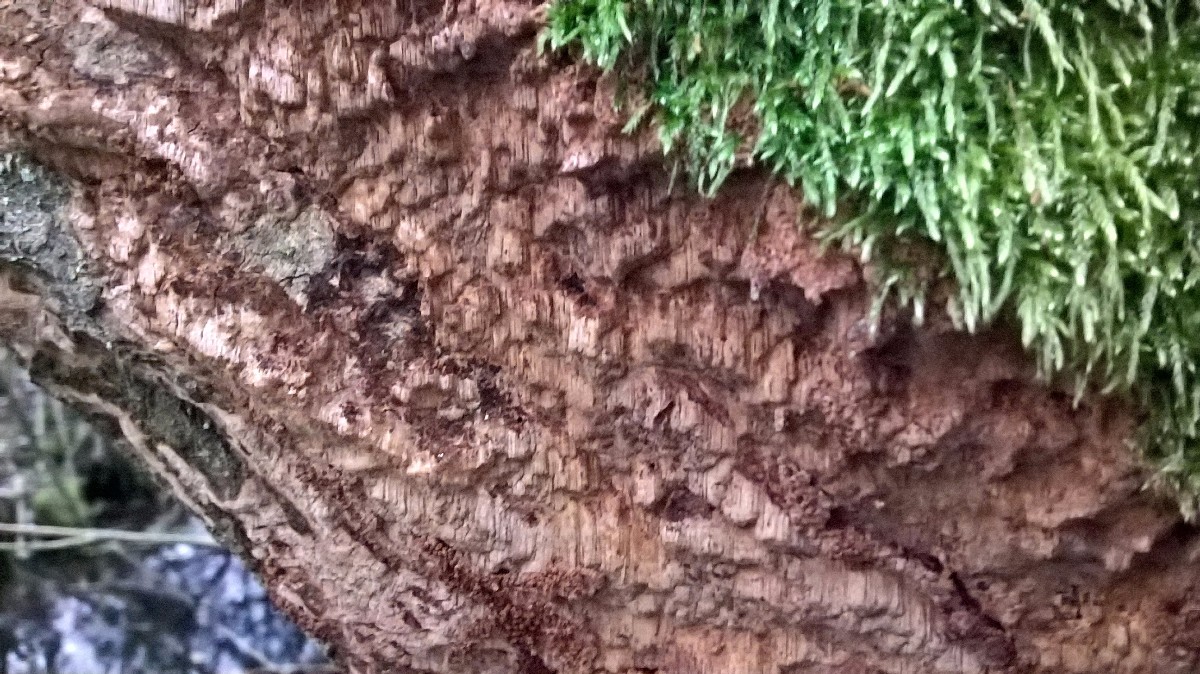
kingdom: Fungi
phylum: Basidiomycota
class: Agaricomycetes
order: Hymenochaetales
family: Hymenochaetaceae
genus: Fuscoporia
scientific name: Fuscoporia
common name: Ildporesvamp
